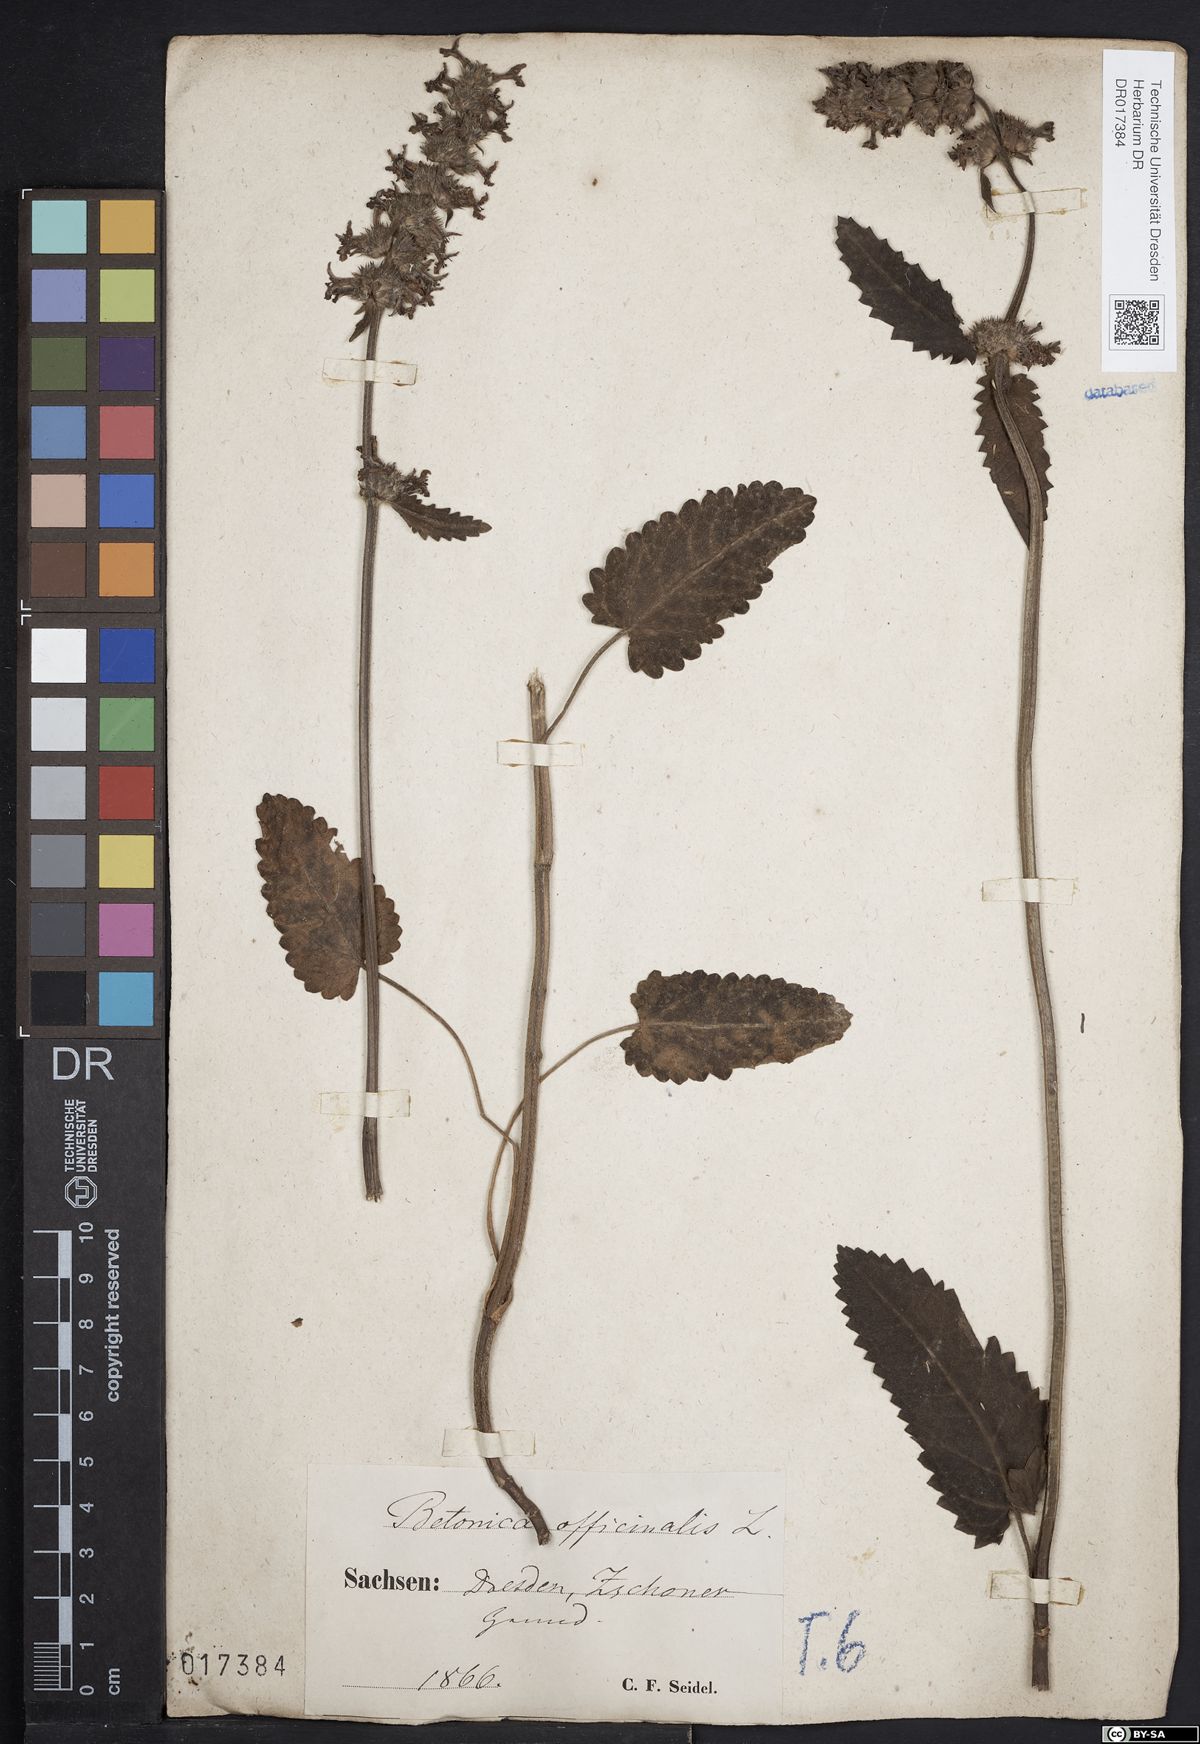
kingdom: Plantae
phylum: Tracheophyta
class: Magnoliopsida
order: Lamiales
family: Lamiaceae
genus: Betonica
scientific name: Betonica officinalis
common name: Bishop's-wort
